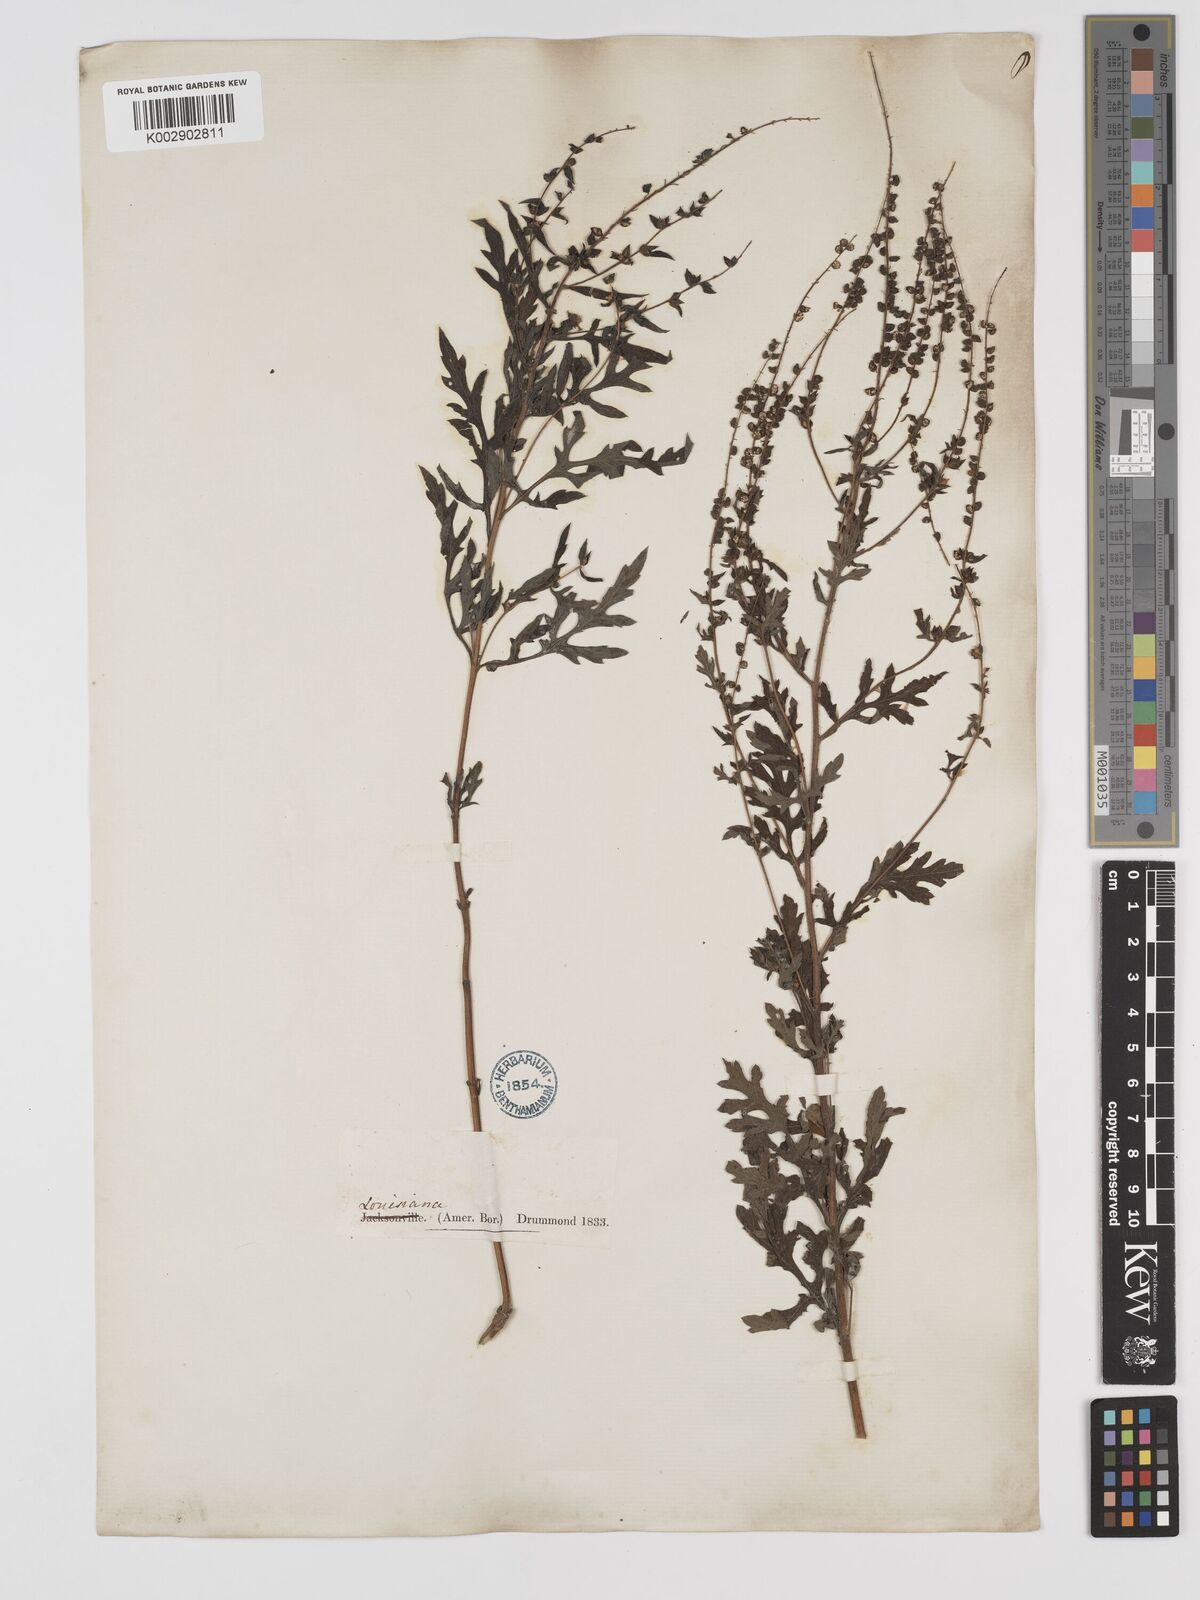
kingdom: Plantae
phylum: Tracheophyta
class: Magnoliopsida
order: Asterales
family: Asteraceae
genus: Ambrosia
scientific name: Ambrosia artemisiifolia
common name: Annual ragweed
